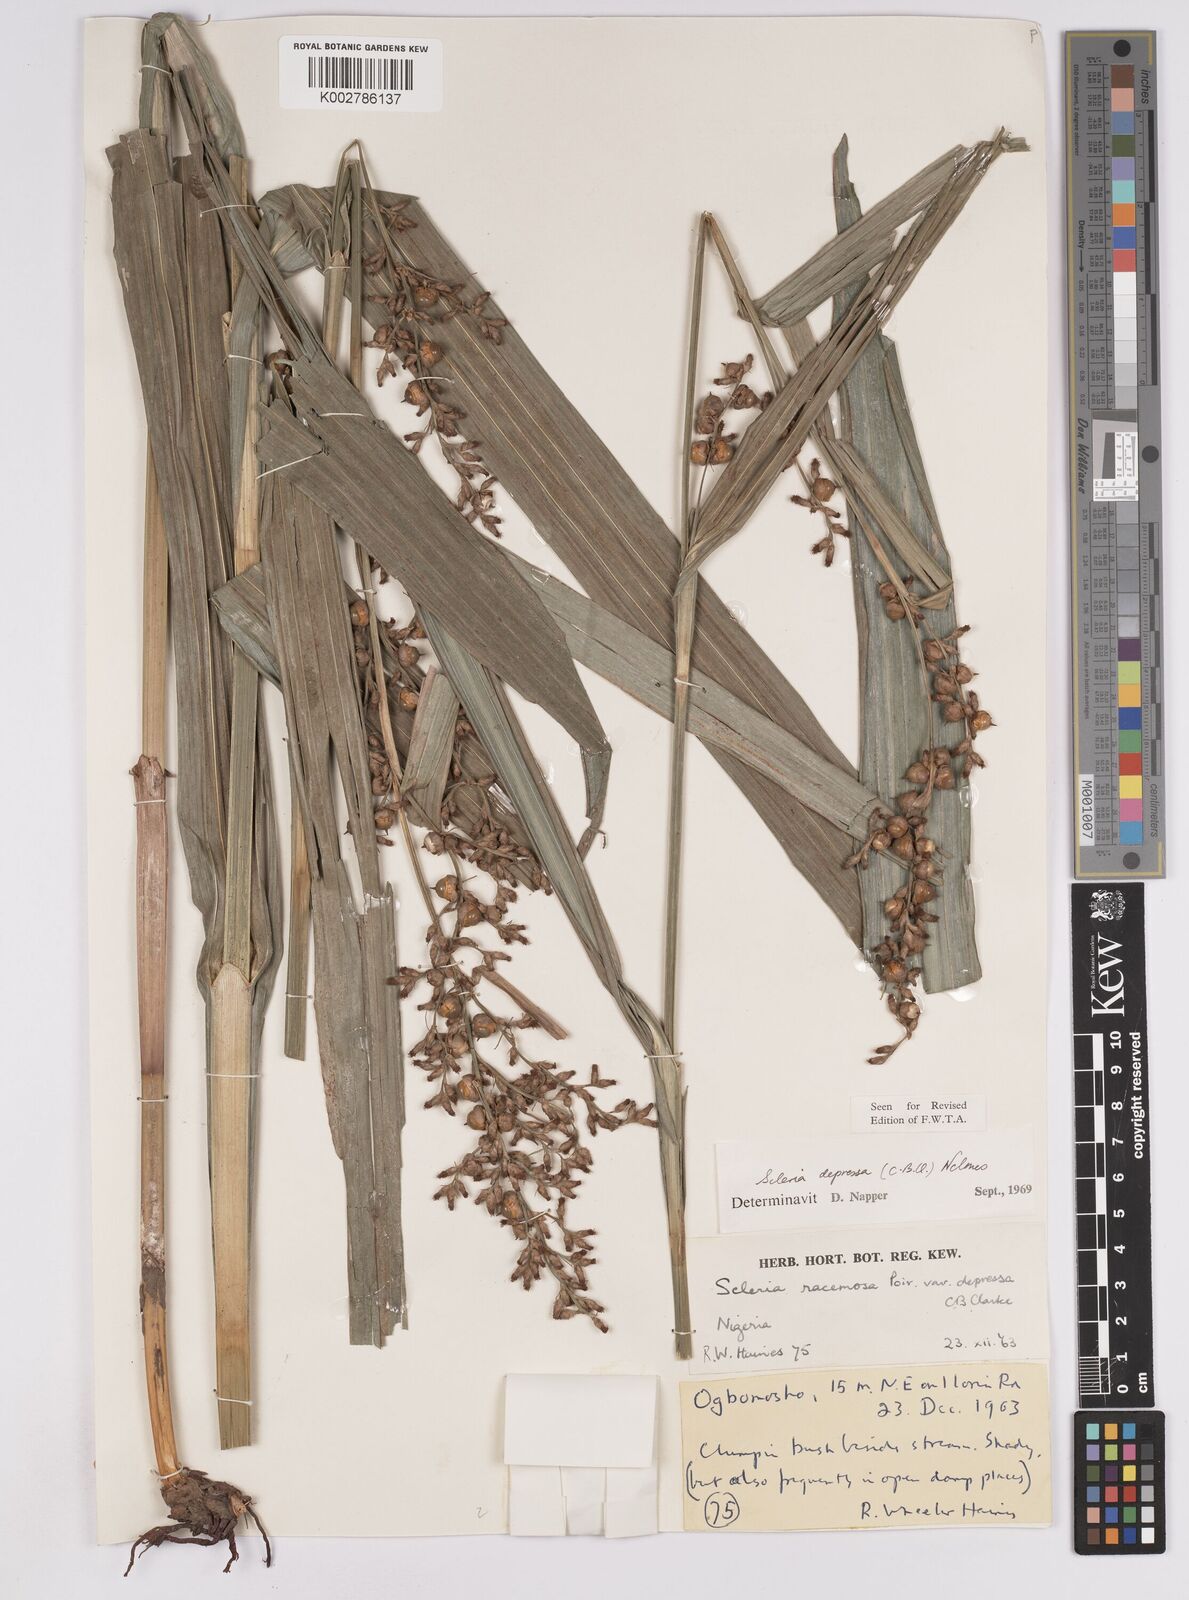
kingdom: Plantae
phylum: Tracheophyta
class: Liliopsida
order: Poales
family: Cyperaceae
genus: Scleria
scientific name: Scleria depressa
